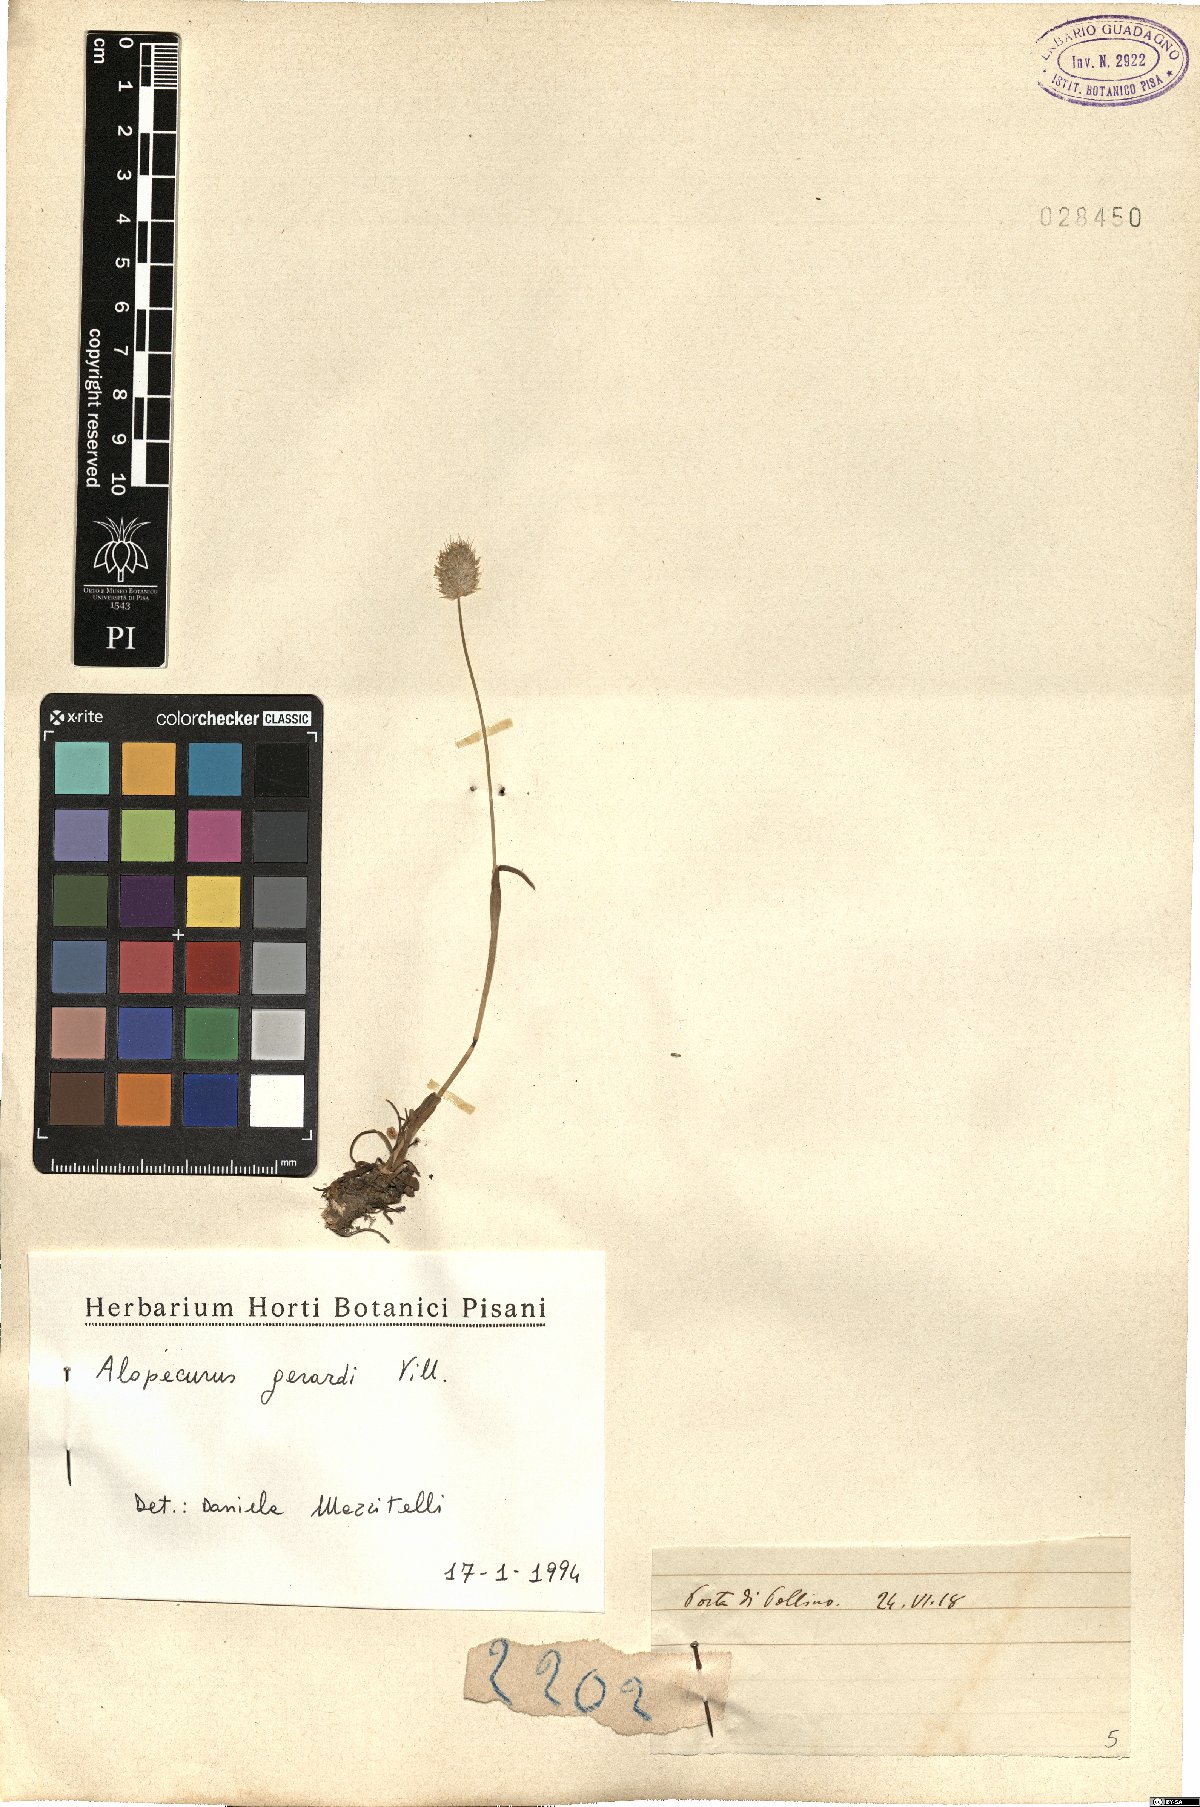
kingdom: Plantae
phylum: Tracheophyta
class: Liliopsida
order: Poales
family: Poaceae
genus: Alopecurus
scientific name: Alopecurus gerardii
